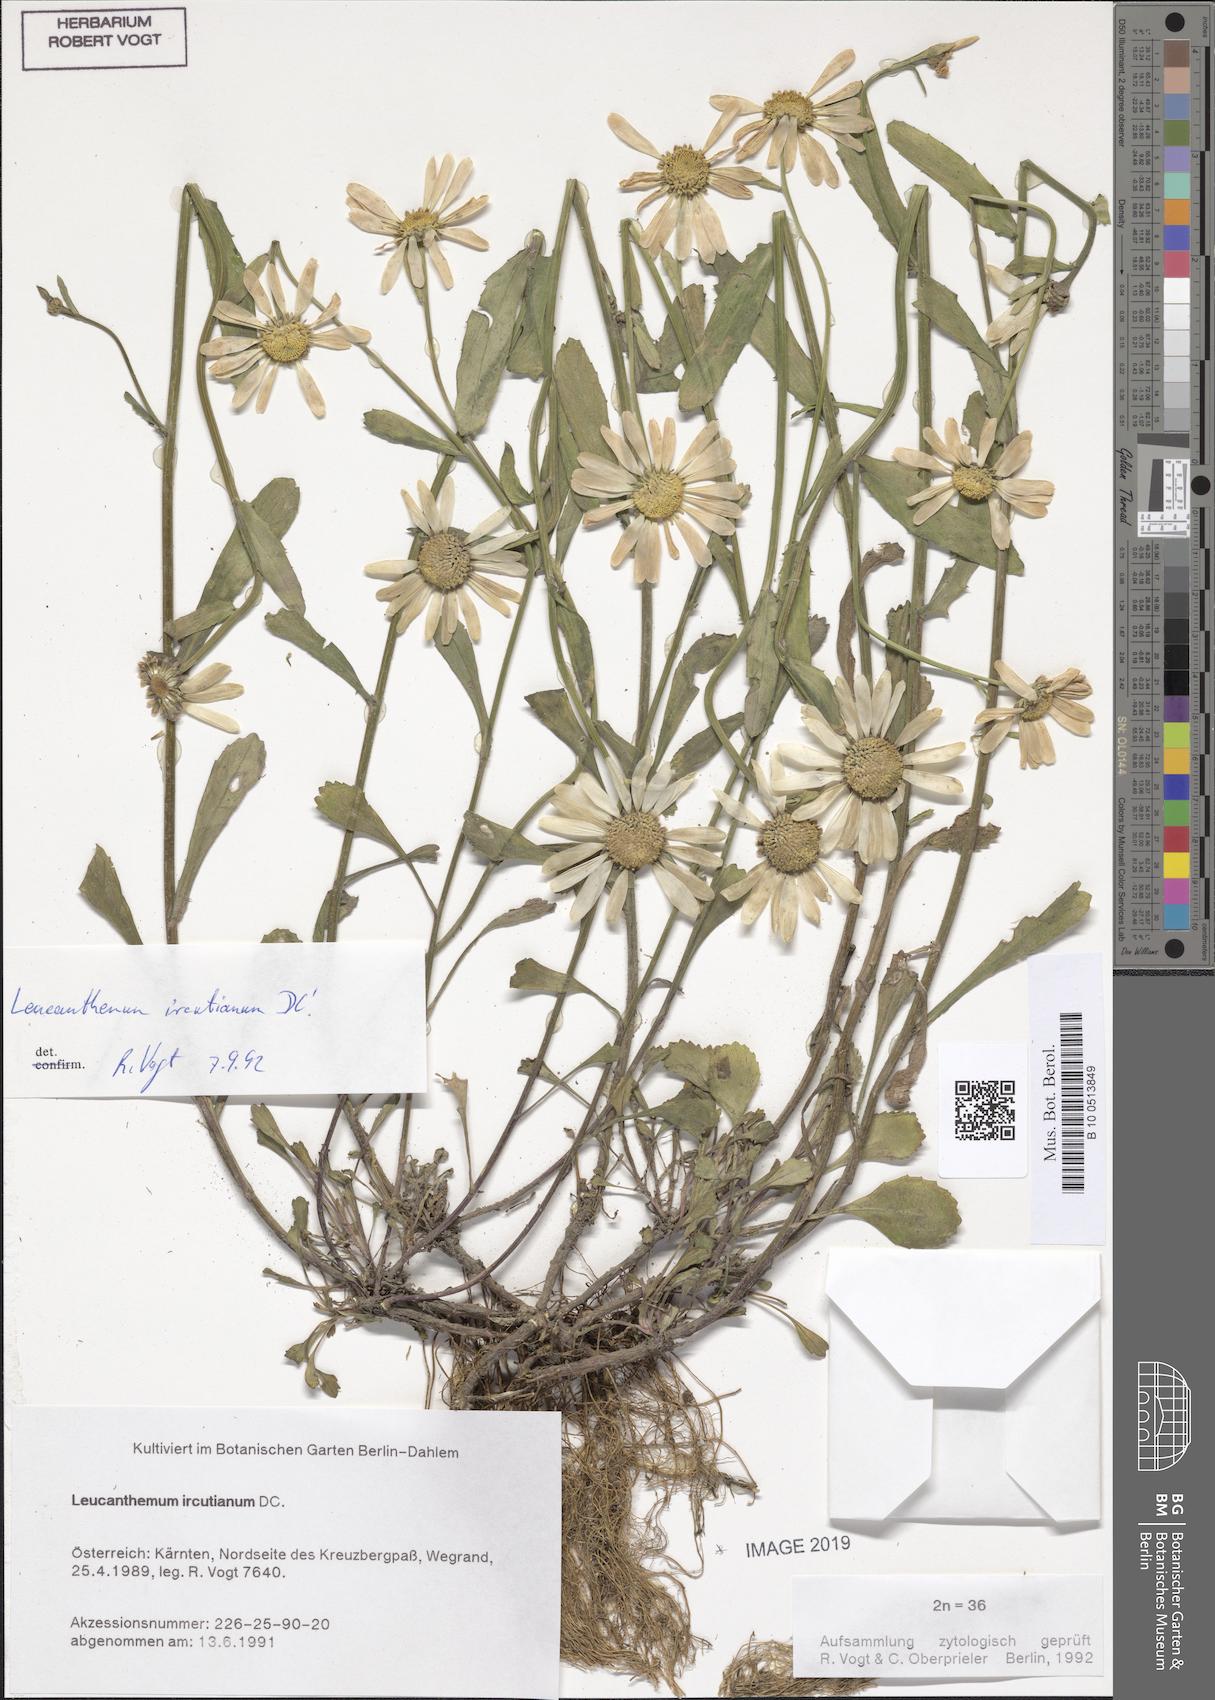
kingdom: Plantae
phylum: Tracheophyta
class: Magnoliopsida
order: Asterales
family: Asteraceae
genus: Leucanthemum
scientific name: Leucanthemum ircutianum
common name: Daisy
